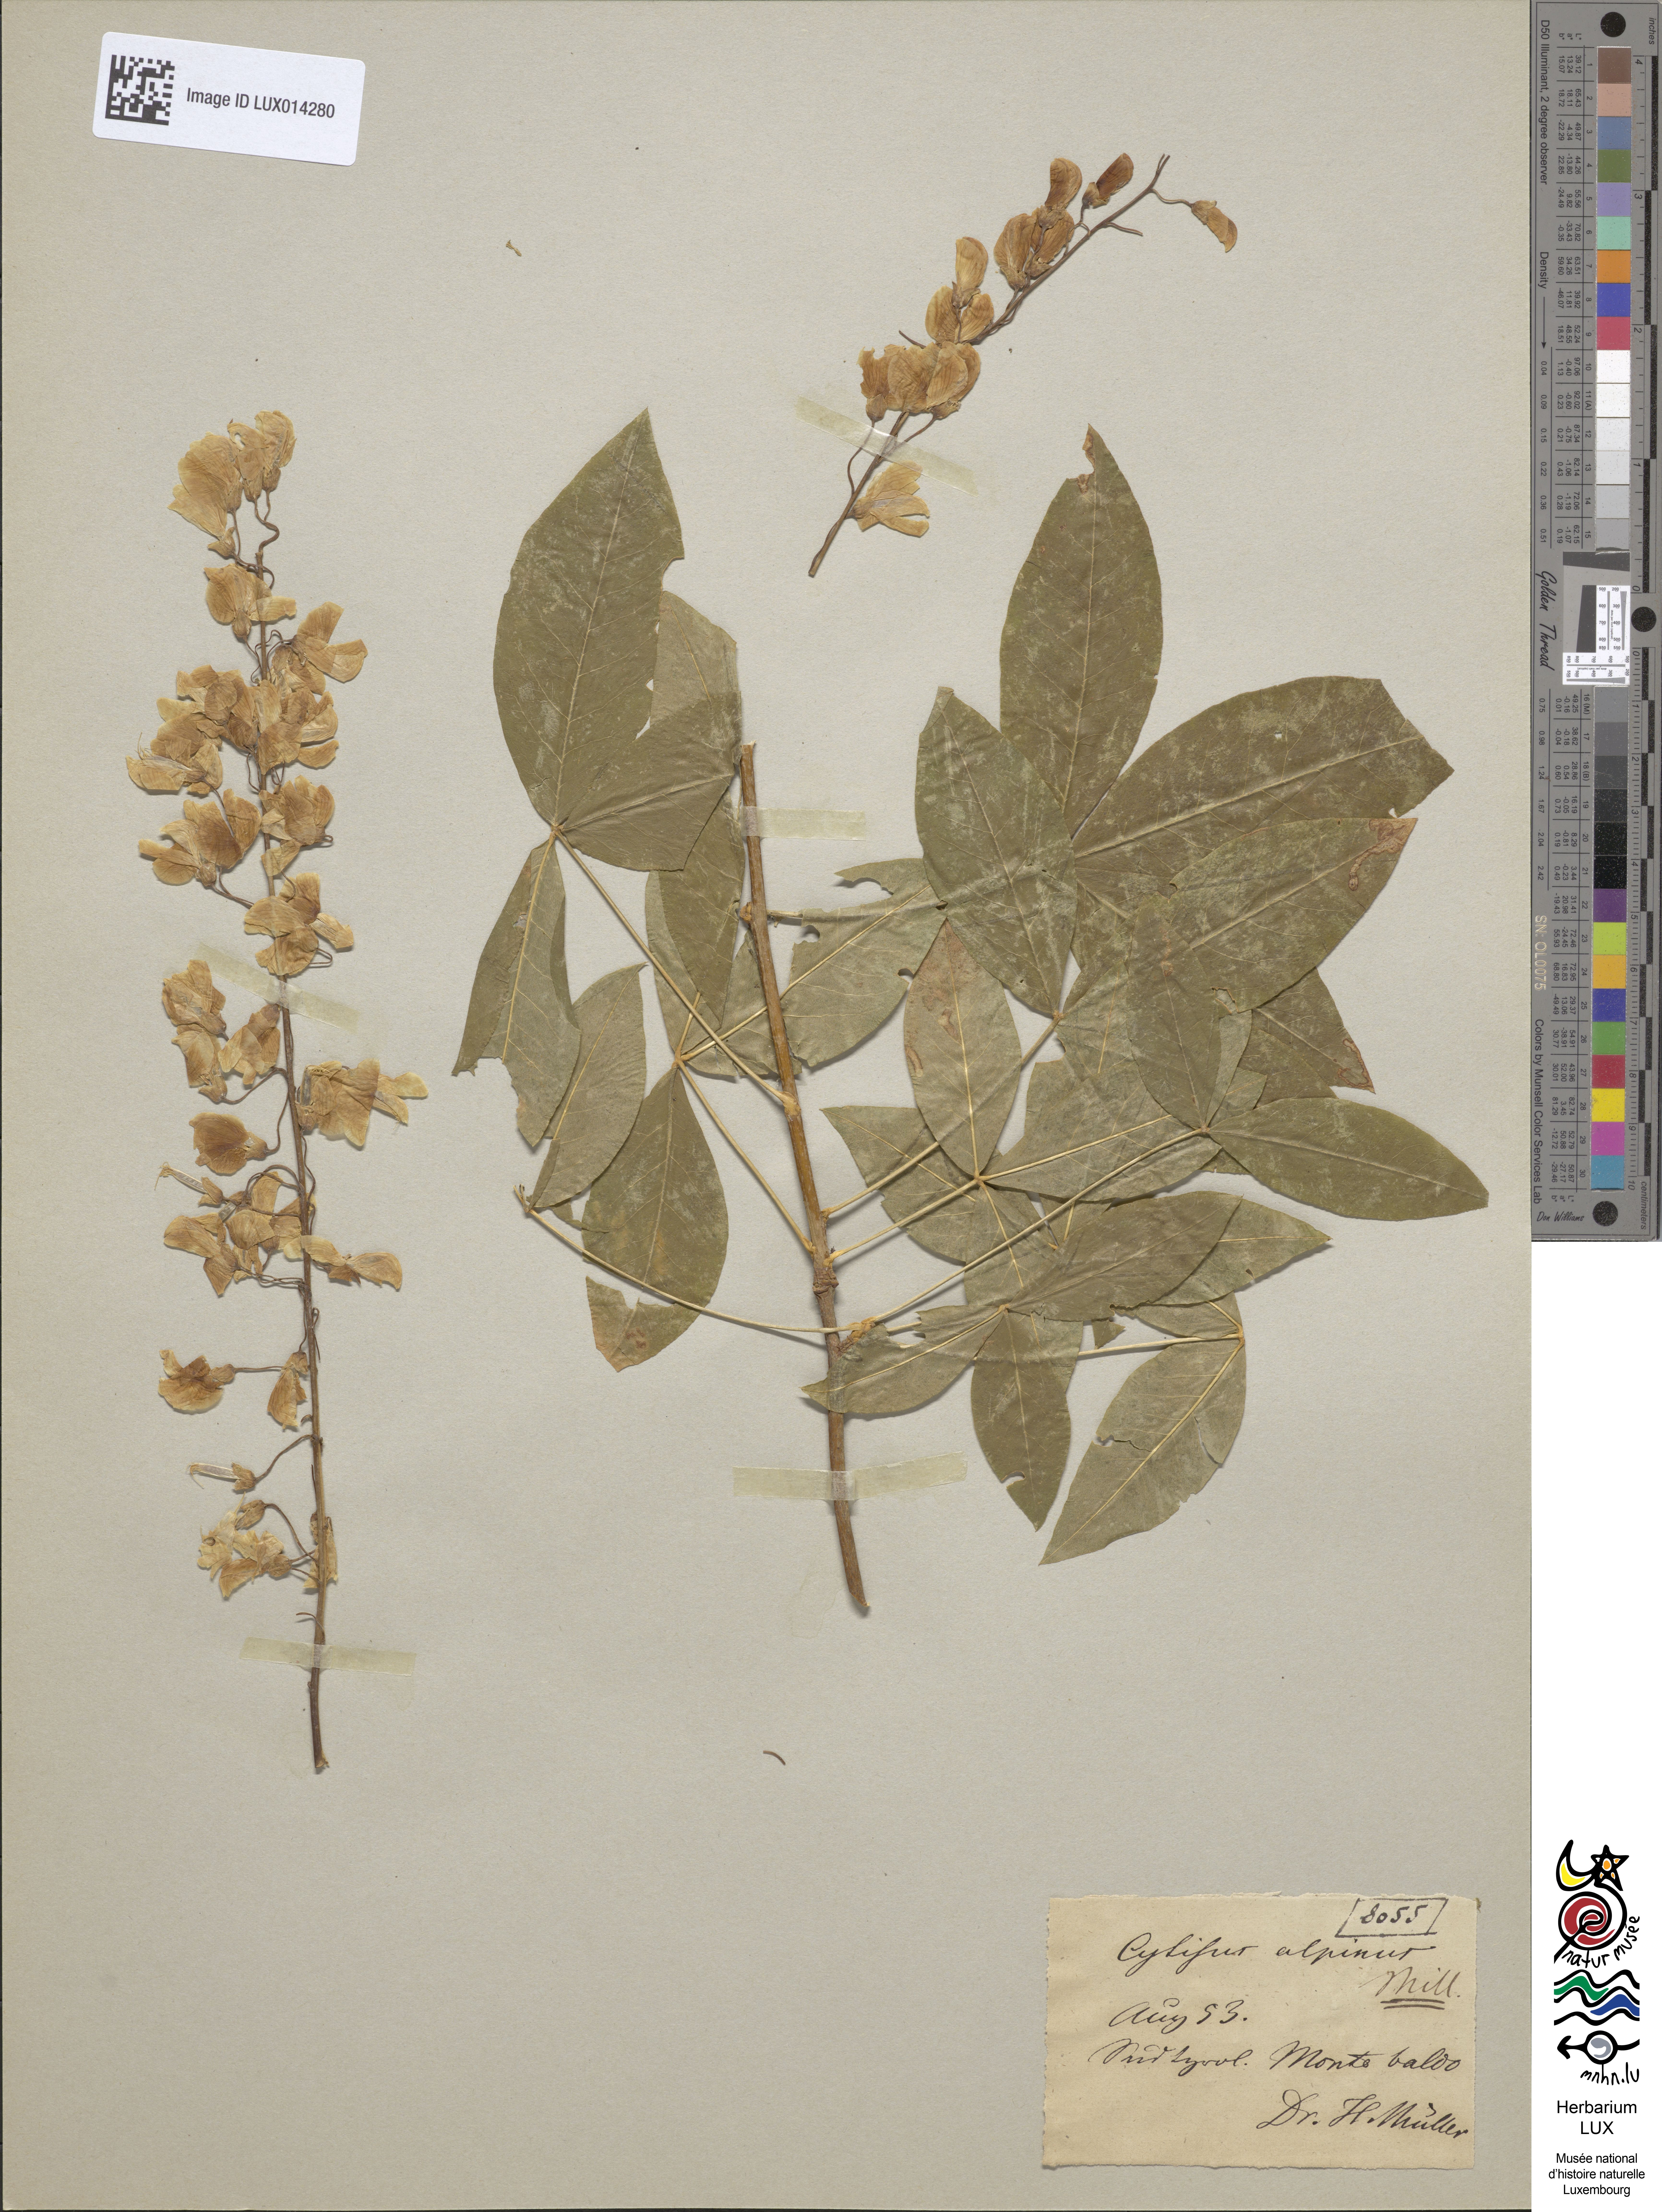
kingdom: Plantae
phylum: Tracheophyta
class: Magnoliopsida
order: Fabales
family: Fabaceae
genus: Laburnum
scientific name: Laburnum alpinum
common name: Scottish laburnum
